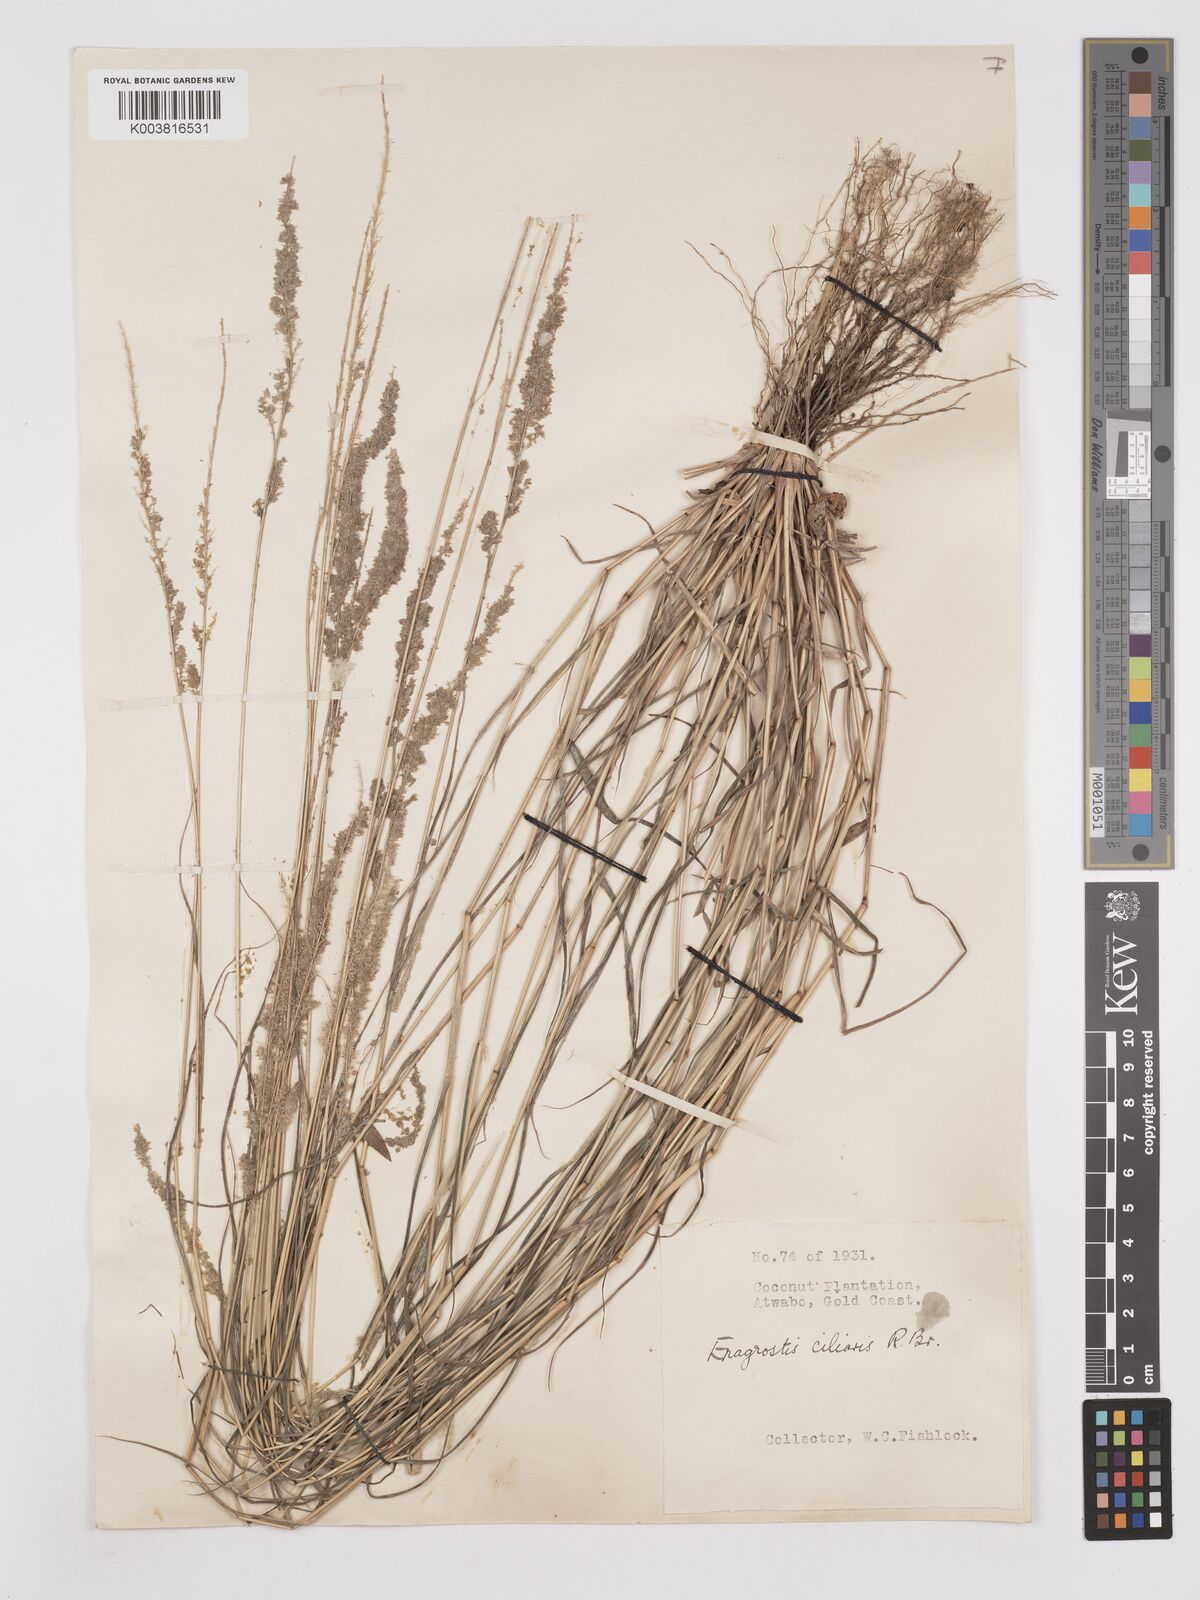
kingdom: Plantae
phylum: Tracheophyta
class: Liliopsida
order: Poales
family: Poaceae
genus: Eragrostis
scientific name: Eragrostis ciliaris
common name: Gophertail lovegrass
